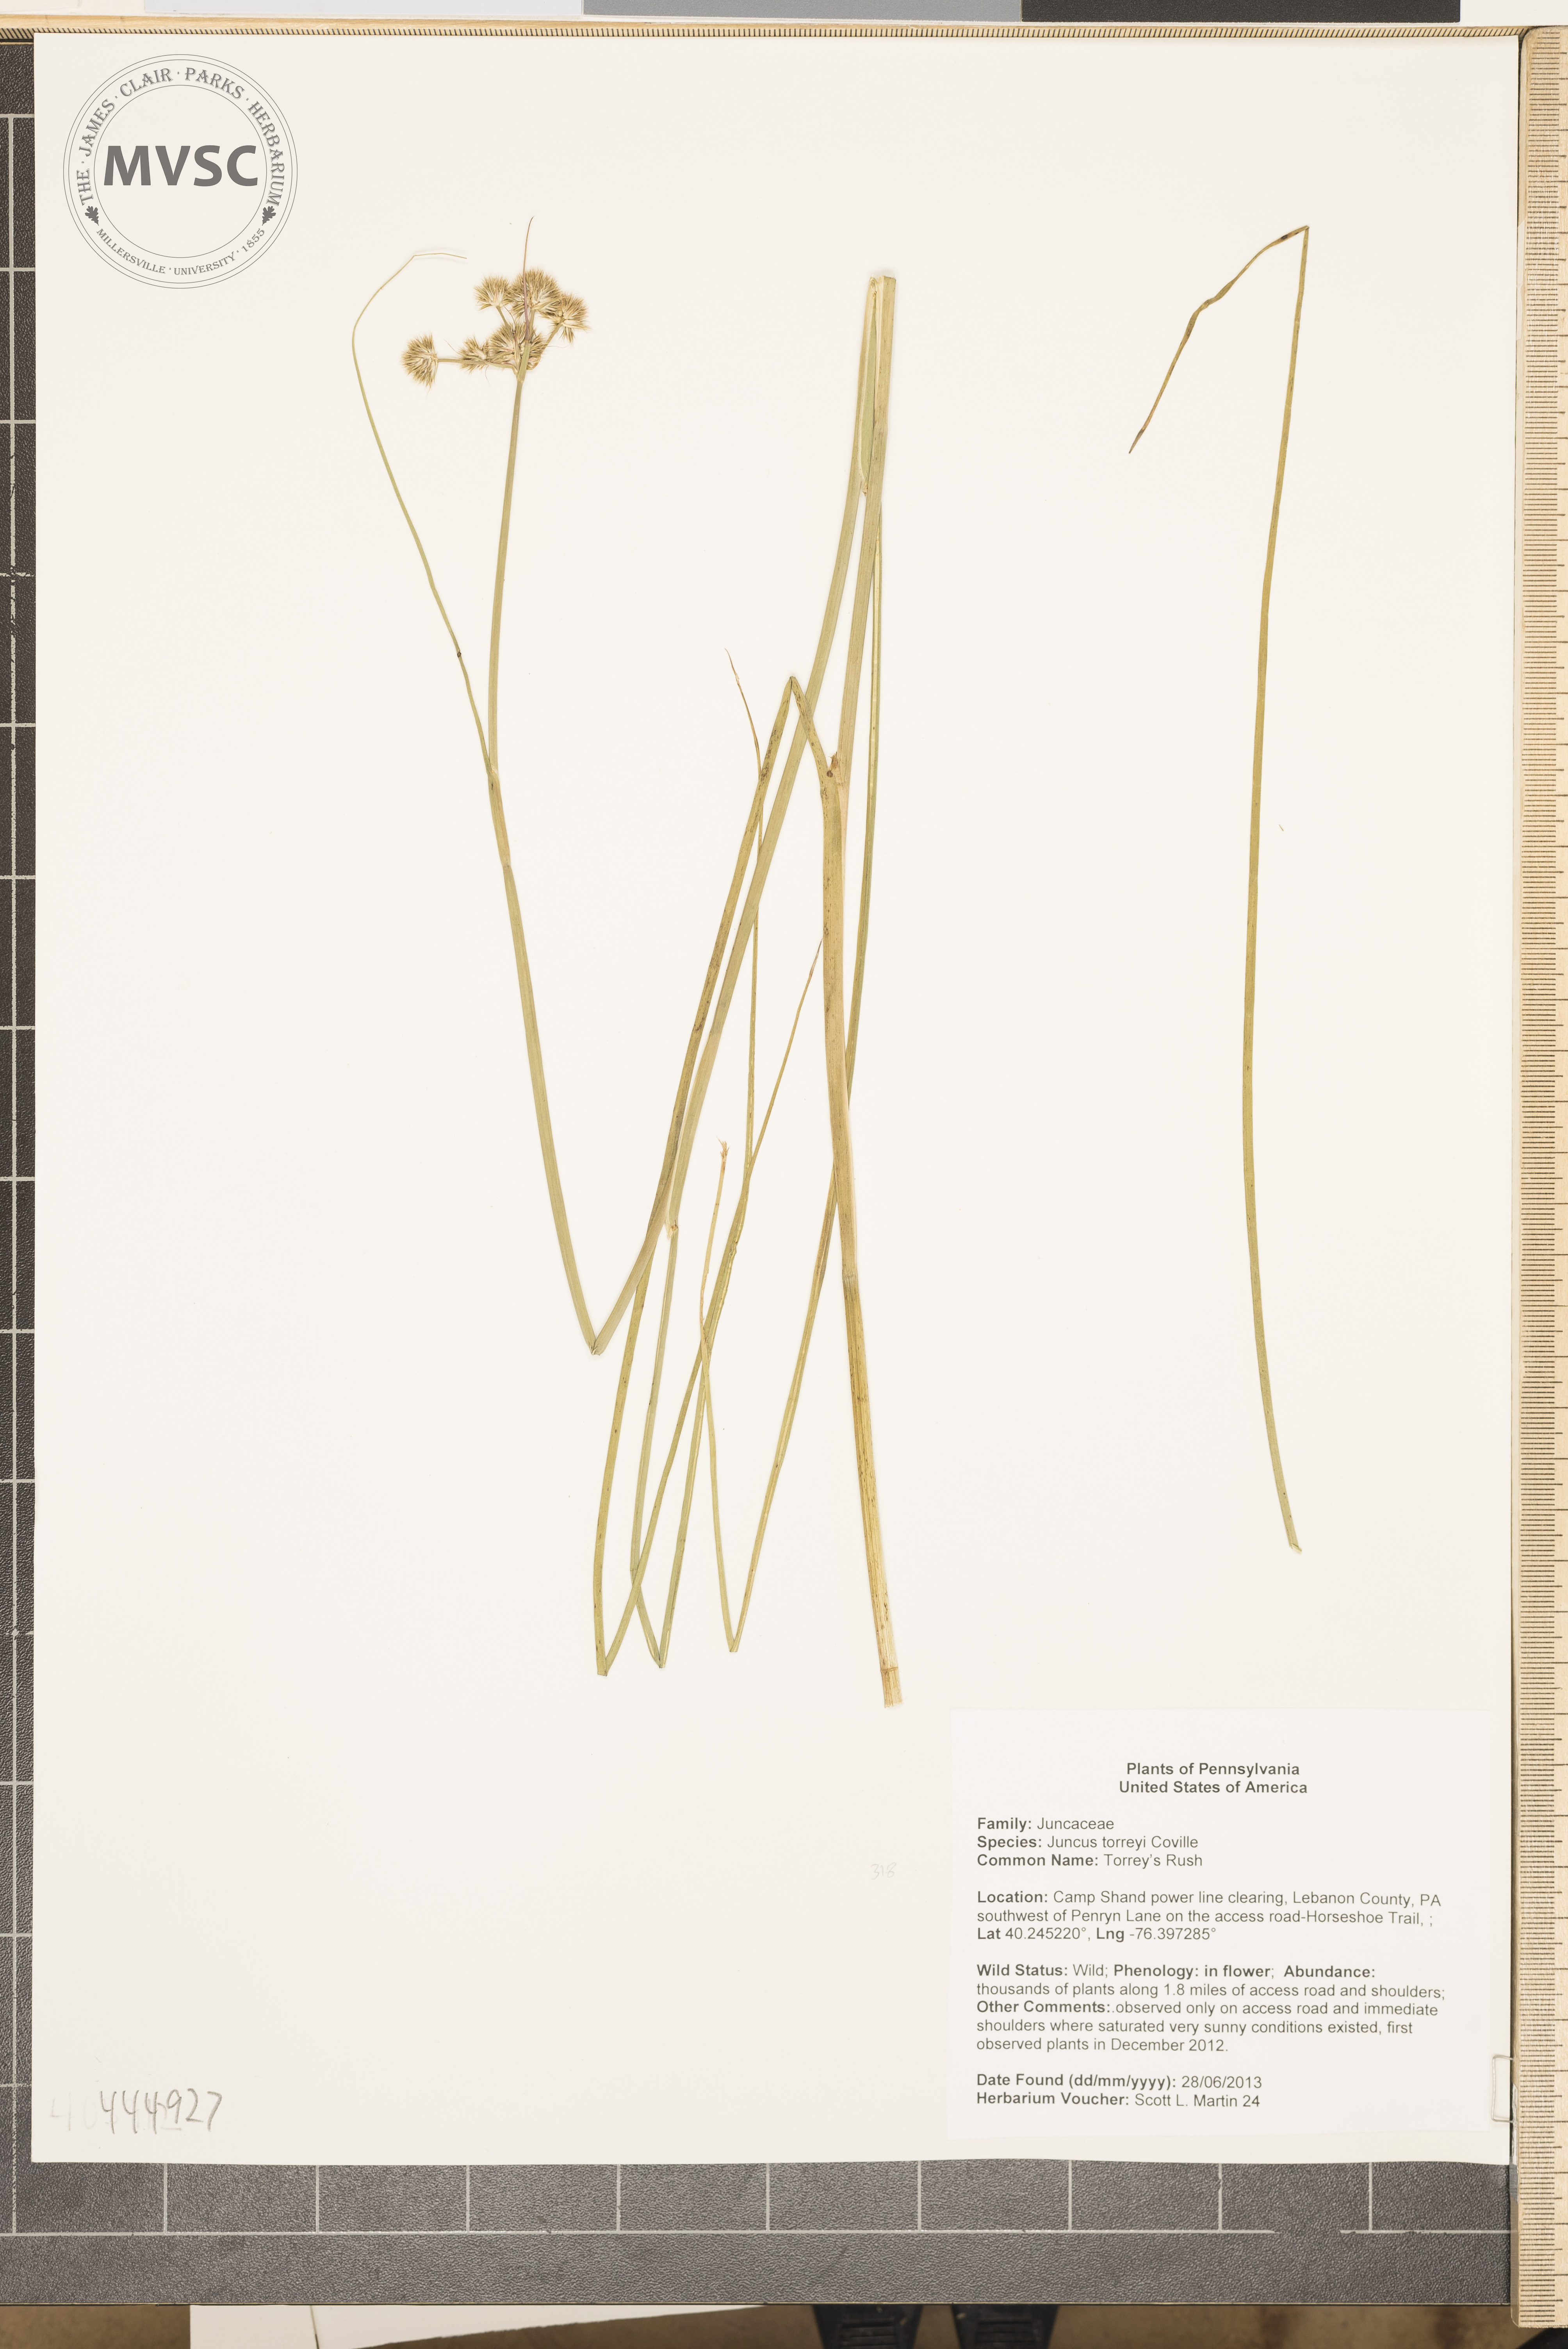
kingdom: Plantae
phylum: Tracheophyta
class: Liliopsida
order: Poales
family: Juncaceae
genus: Juncus
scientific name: Juncus torreyi
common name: Torrey's rush
